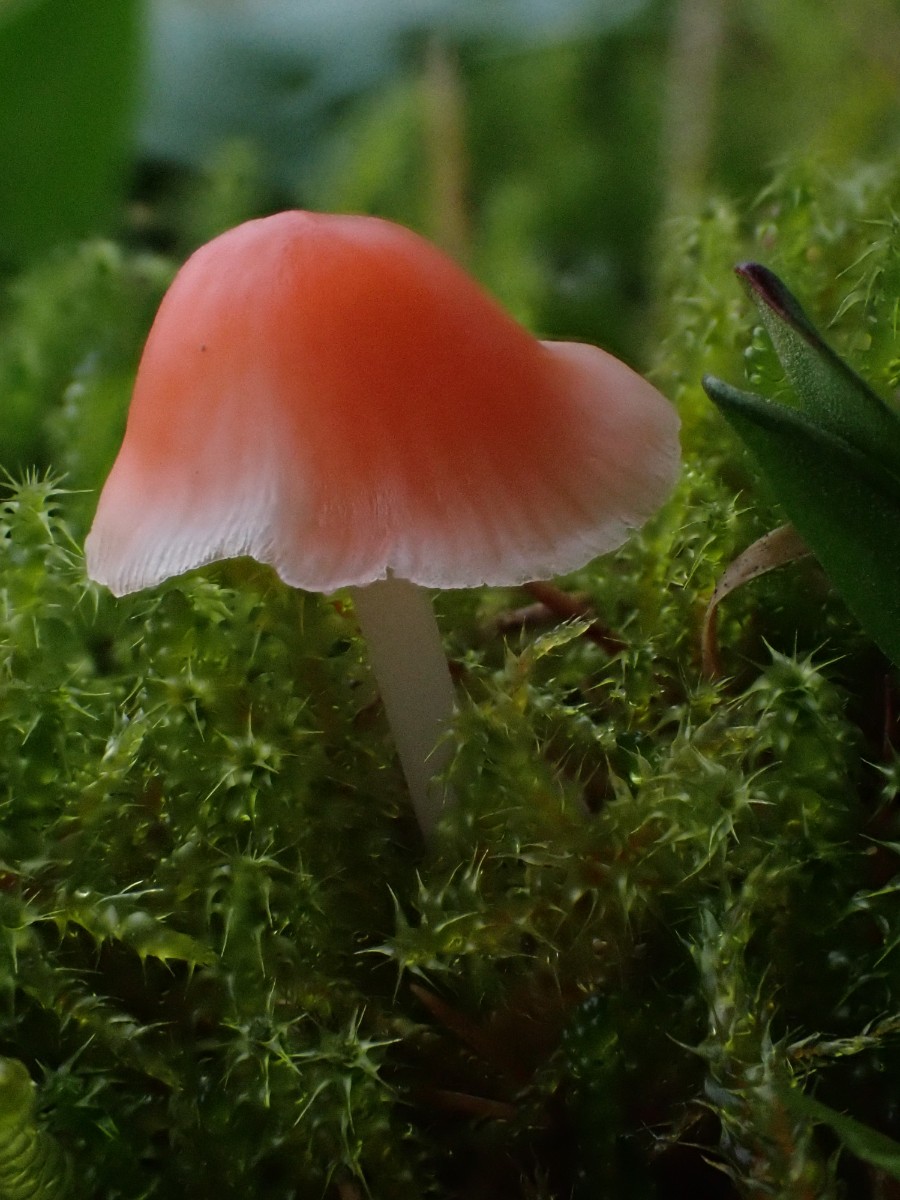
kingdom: Fungi
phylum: Basidiomycota
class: Agaricomycetes
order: Agaricales
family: Mycenaceae
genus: Atheniella
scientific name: Atheniella adonis
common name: rønnerød huesvamp
